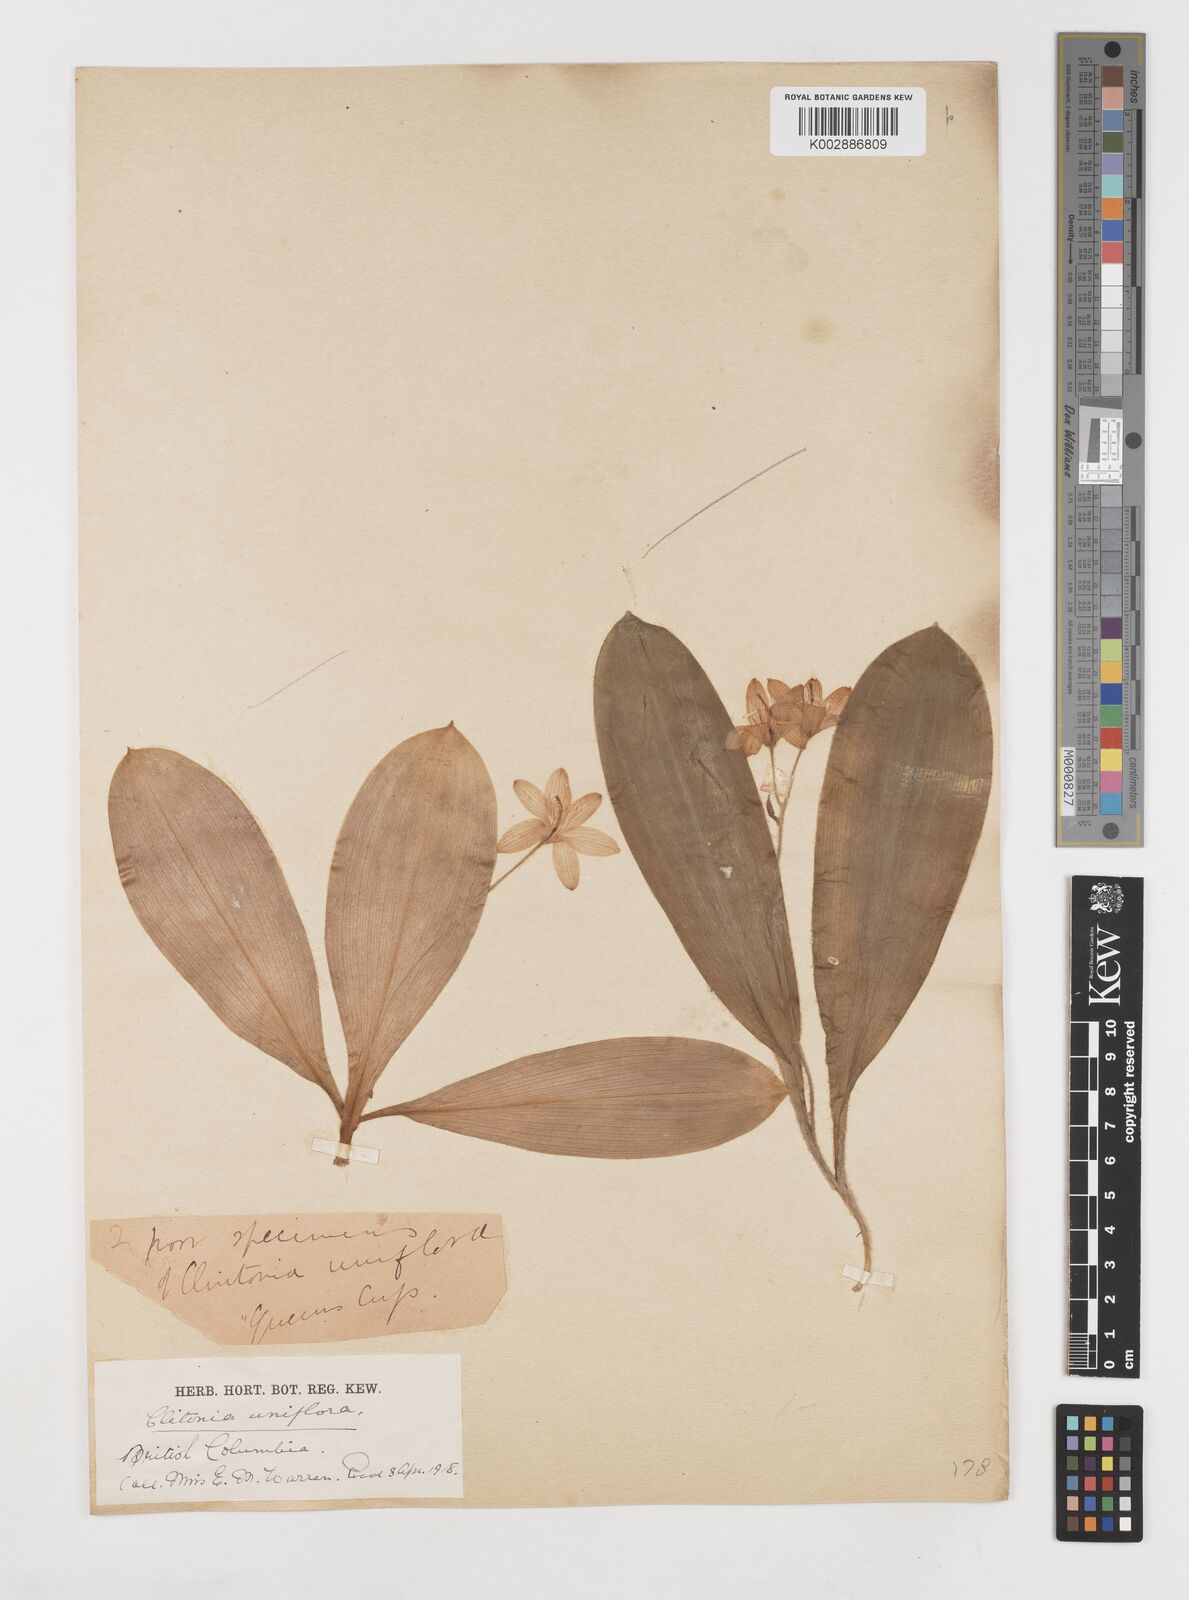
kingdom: Plantae
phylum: Tracheophyta
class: Liliopsida
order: Liliales
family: Liliaceae
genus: Clintonia
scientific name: Clintonia uniflora
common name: Queen's cup
